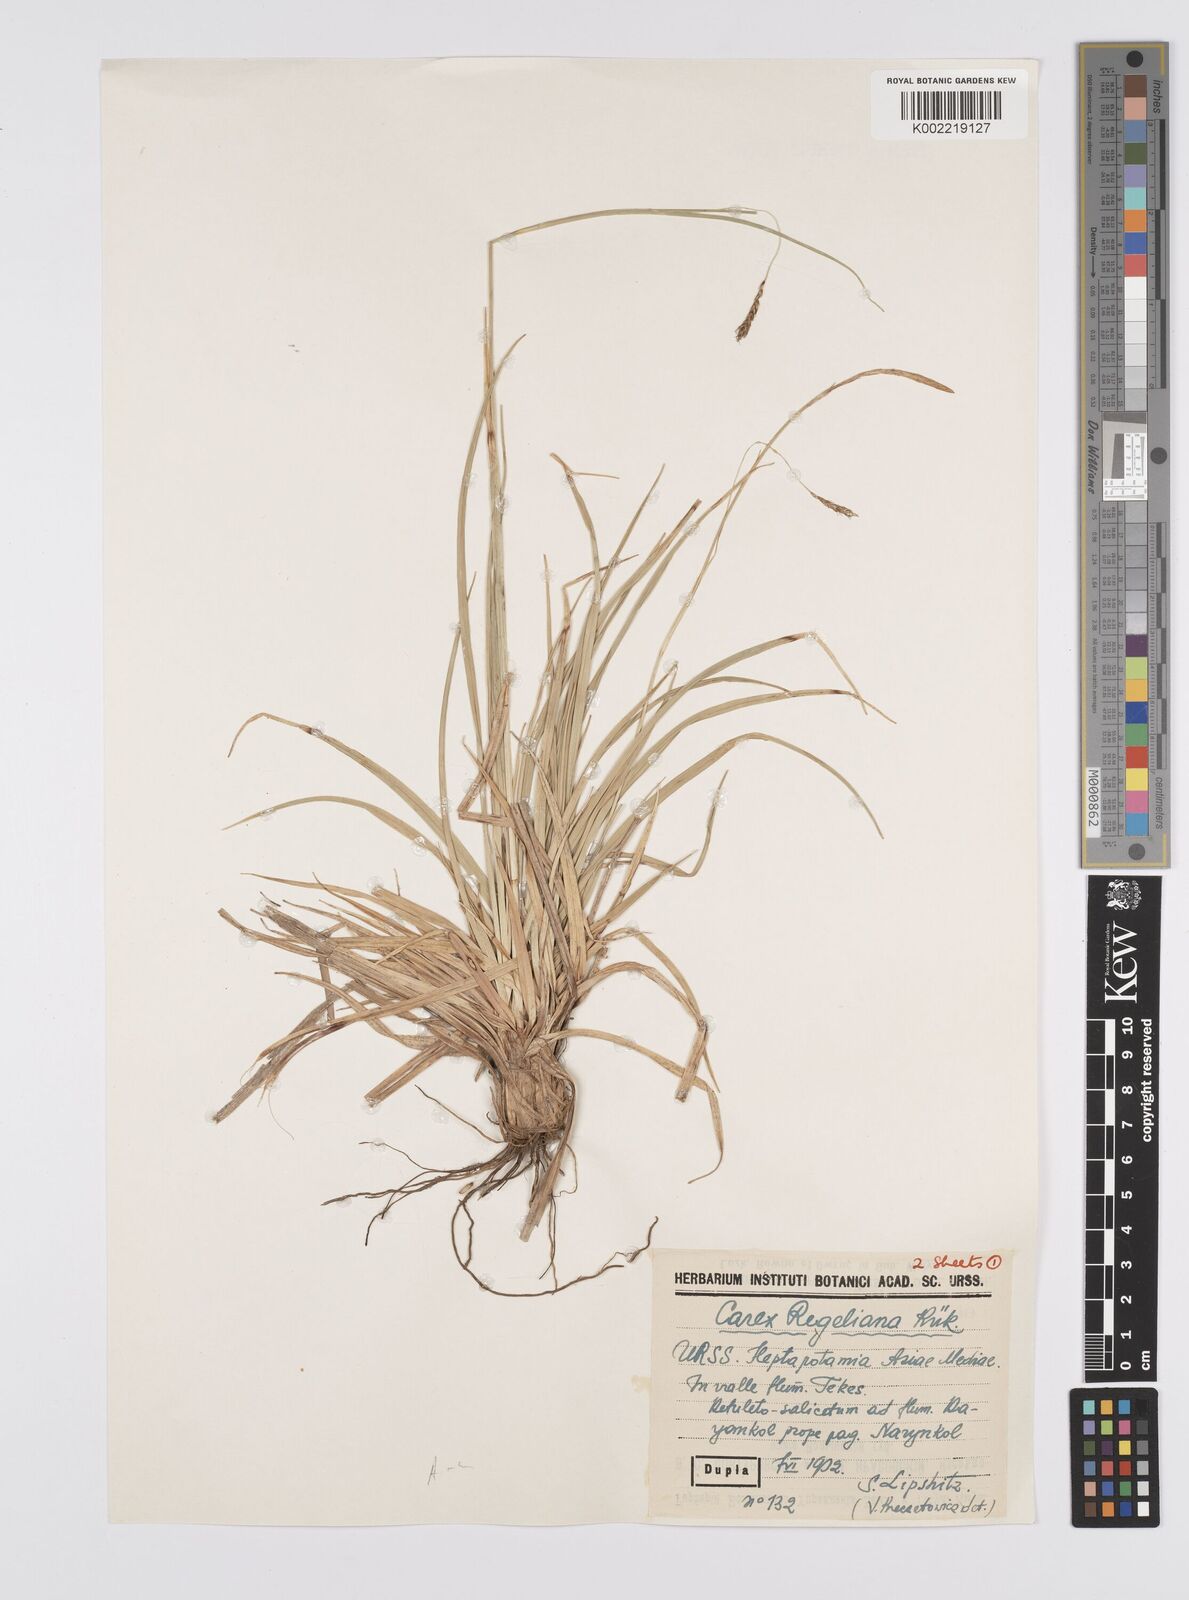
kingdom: Plantae
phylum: Tracheophyta
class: Liliopsida
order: Poales
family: Cyperaceae
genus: Carex
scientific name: Carex regeliana
